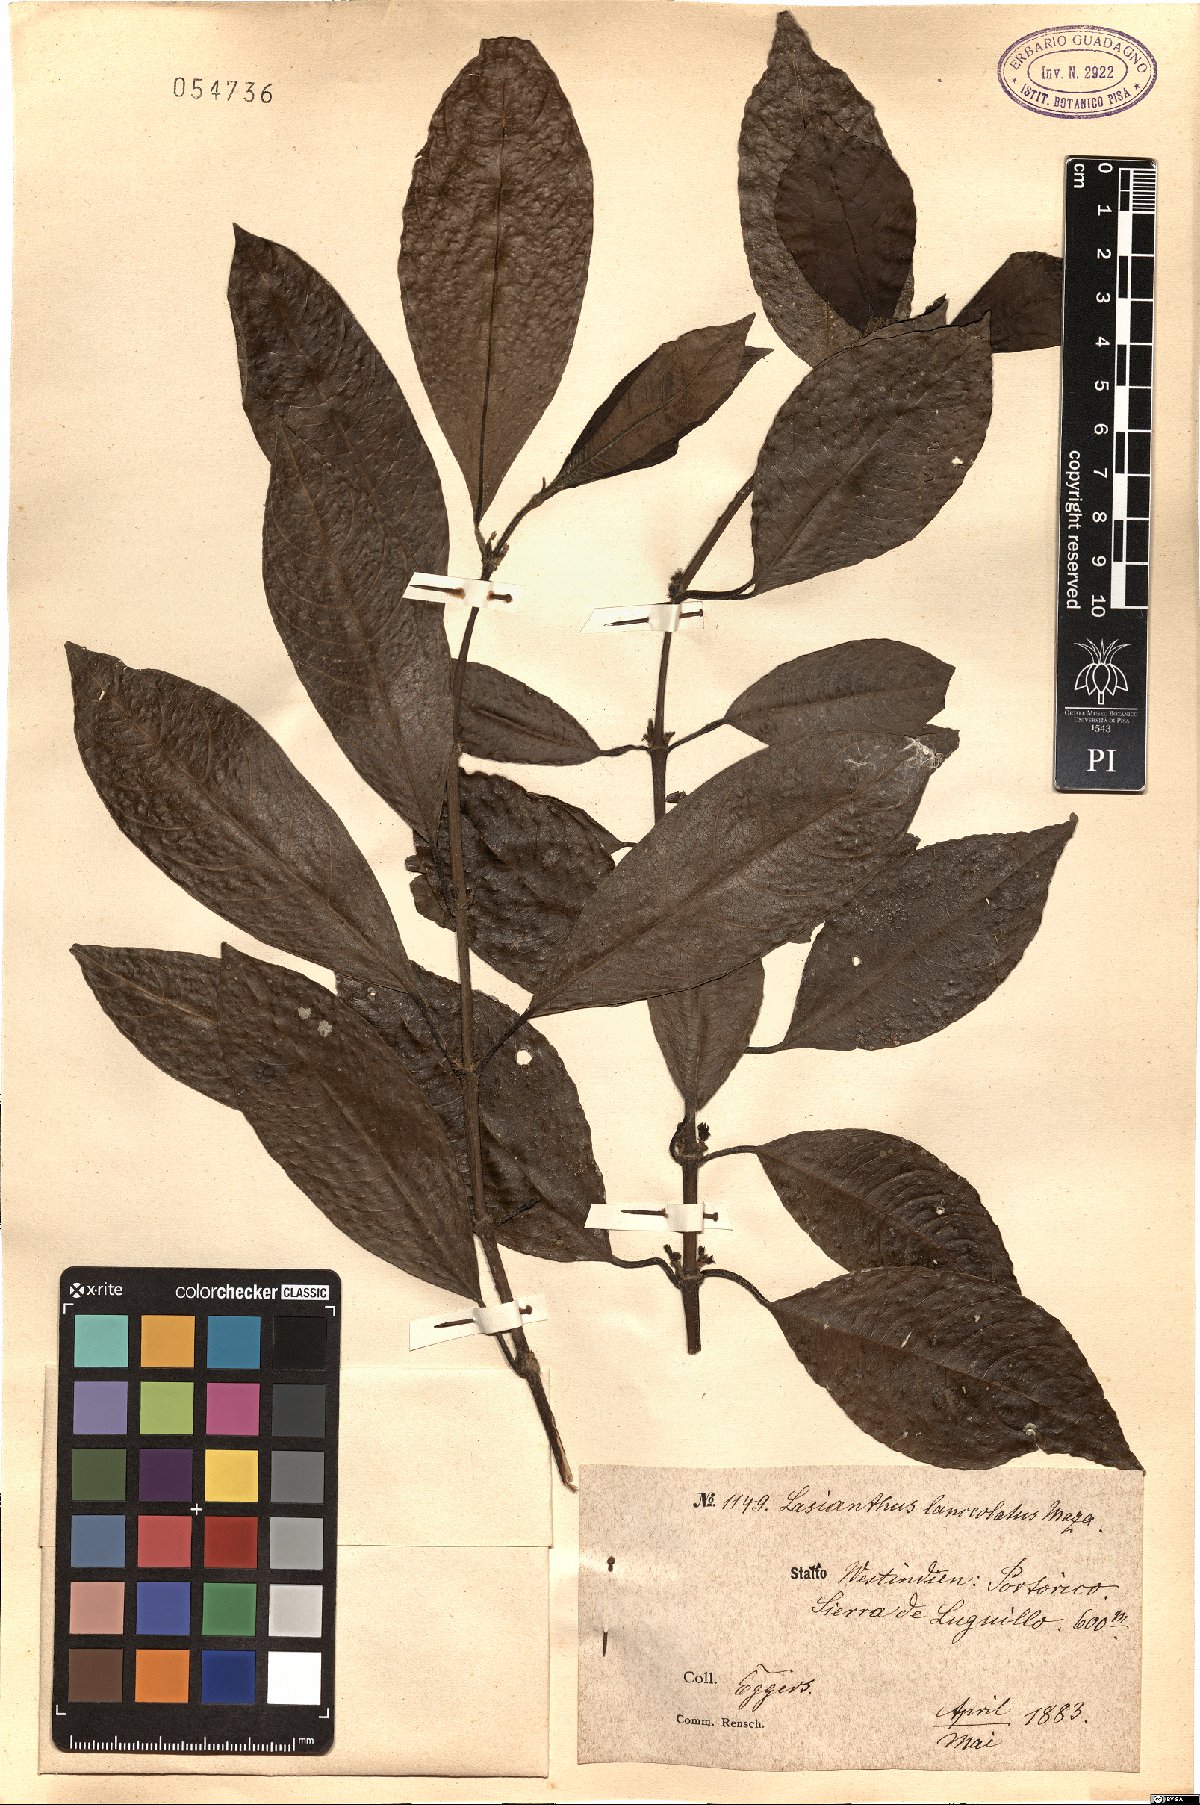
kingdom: Plantae
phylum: Tracheophyta
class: Magnoliopsida
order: Gentianales
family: Rubiaceae
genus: Lasianthus
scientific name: Lasianthus lanceolatus
